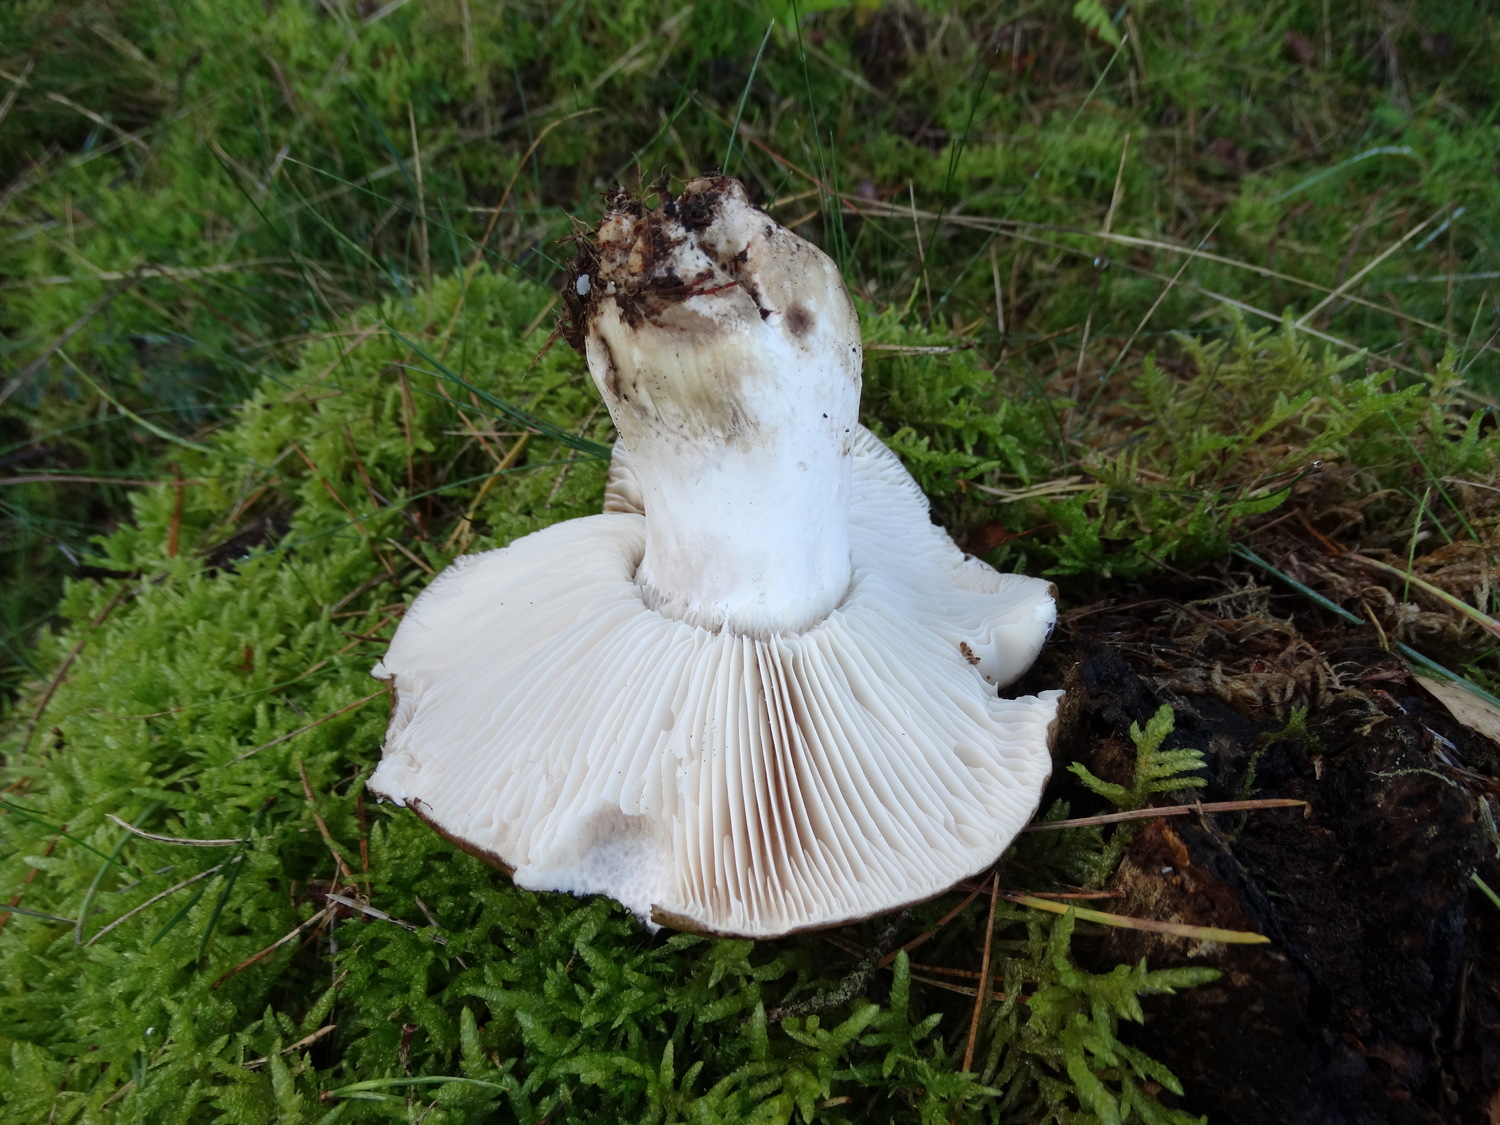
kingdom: Fungi
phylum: Basidiomycota
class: Agaricomycetes
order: Russulales
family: Russulaceae
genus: Russula
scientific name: Russula adusta
